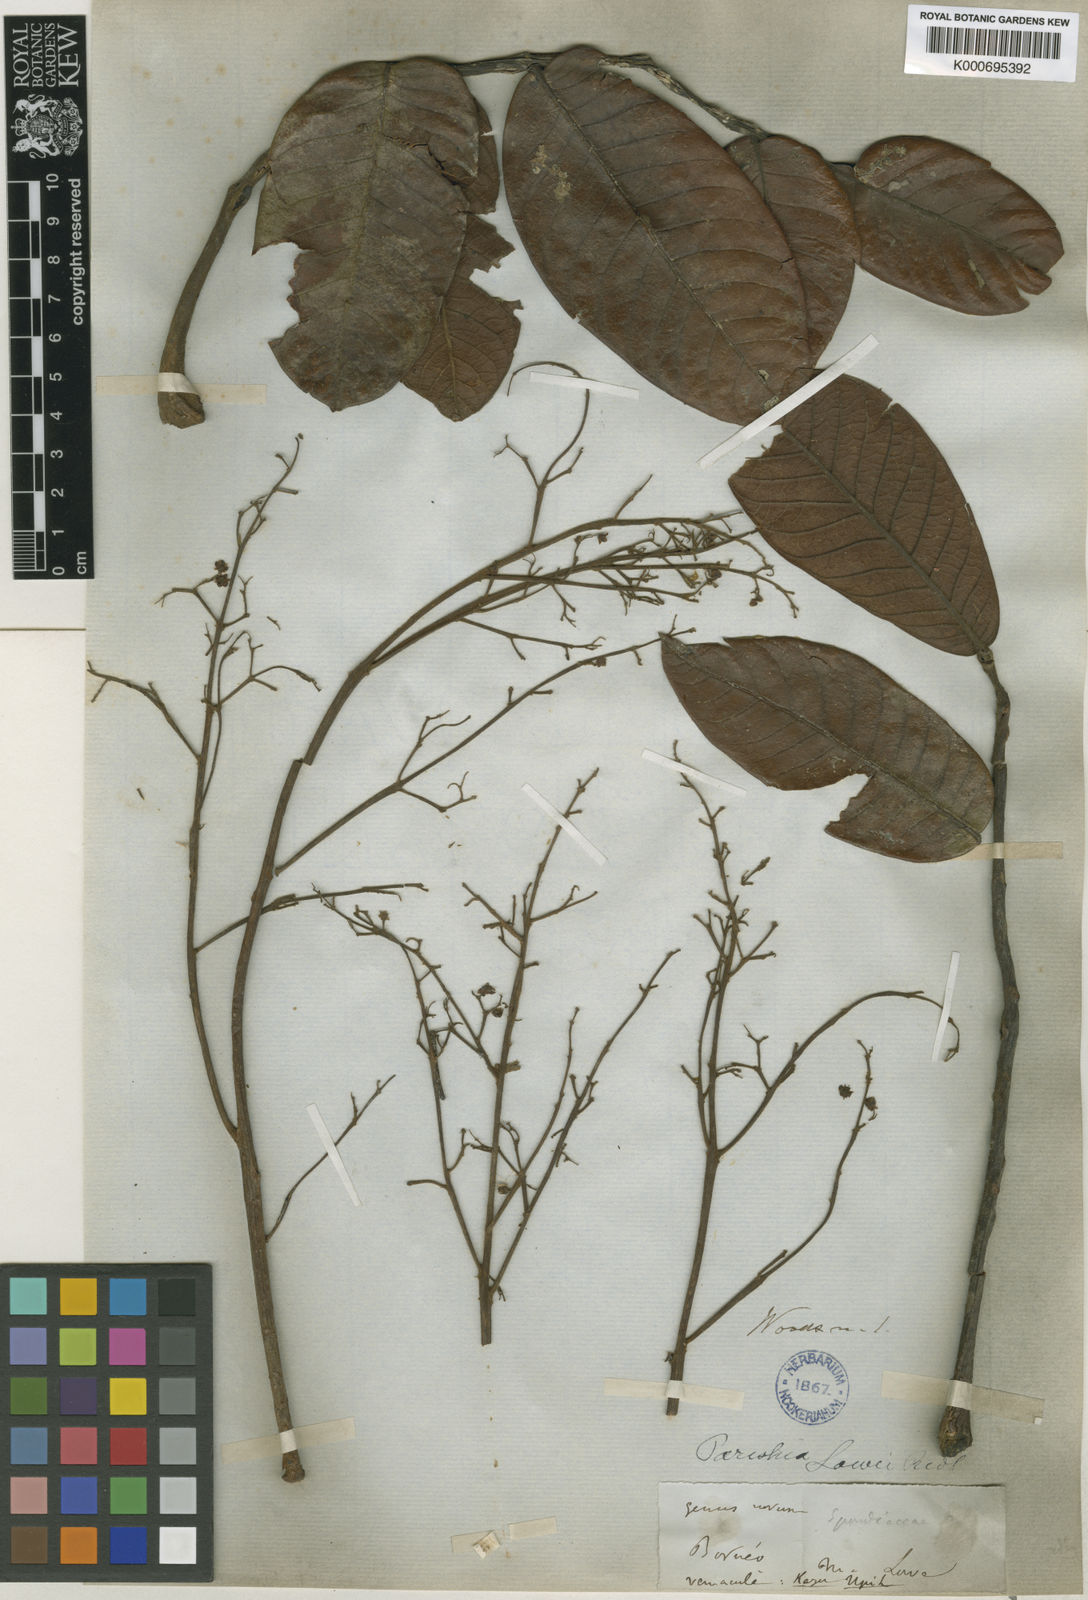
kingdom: Plantae
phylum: Tracheophyta
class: Magnoliopsida
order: Sapindales
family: Anacardiaceae
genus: Parishia
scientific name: Parishia insignis
